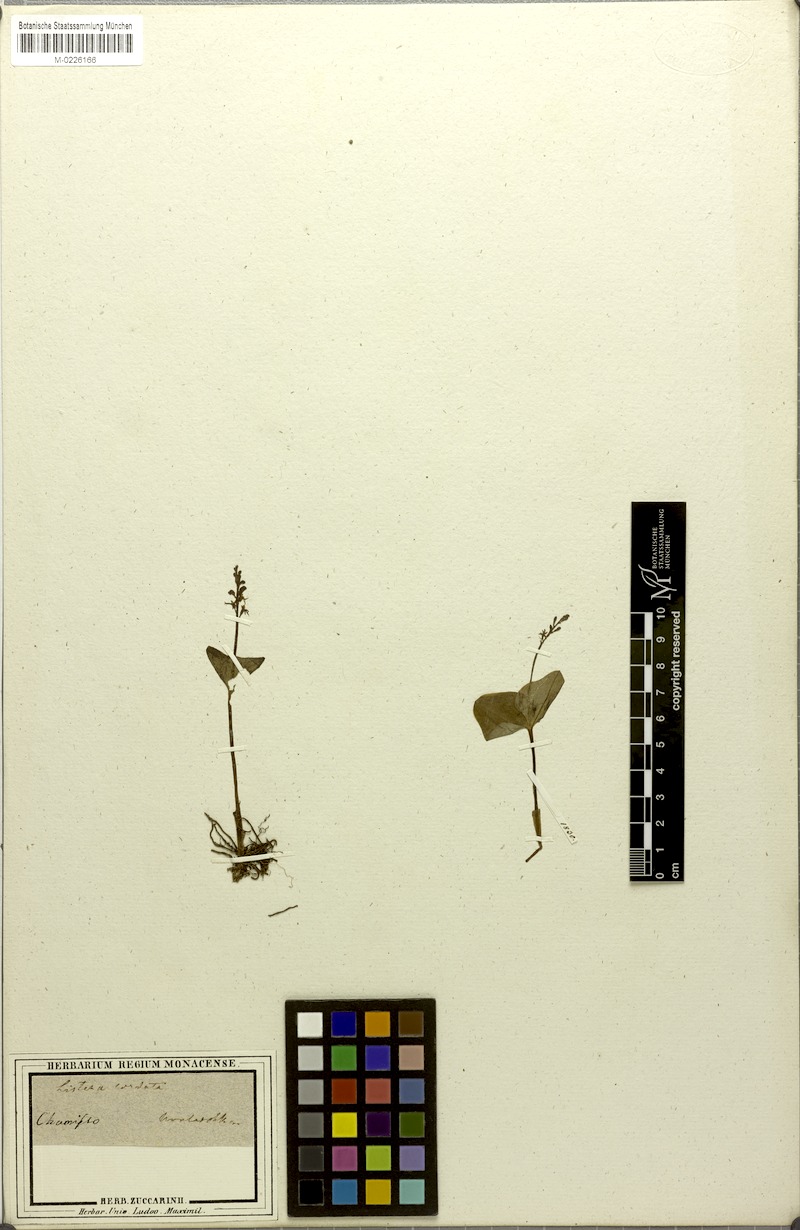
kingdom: Plantae
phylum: Tracheophyta
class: Liliopsida
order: Asparagales
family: Orchidaceae
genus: Neottia
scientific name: Neottia cordata
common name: Lesser twayblade
